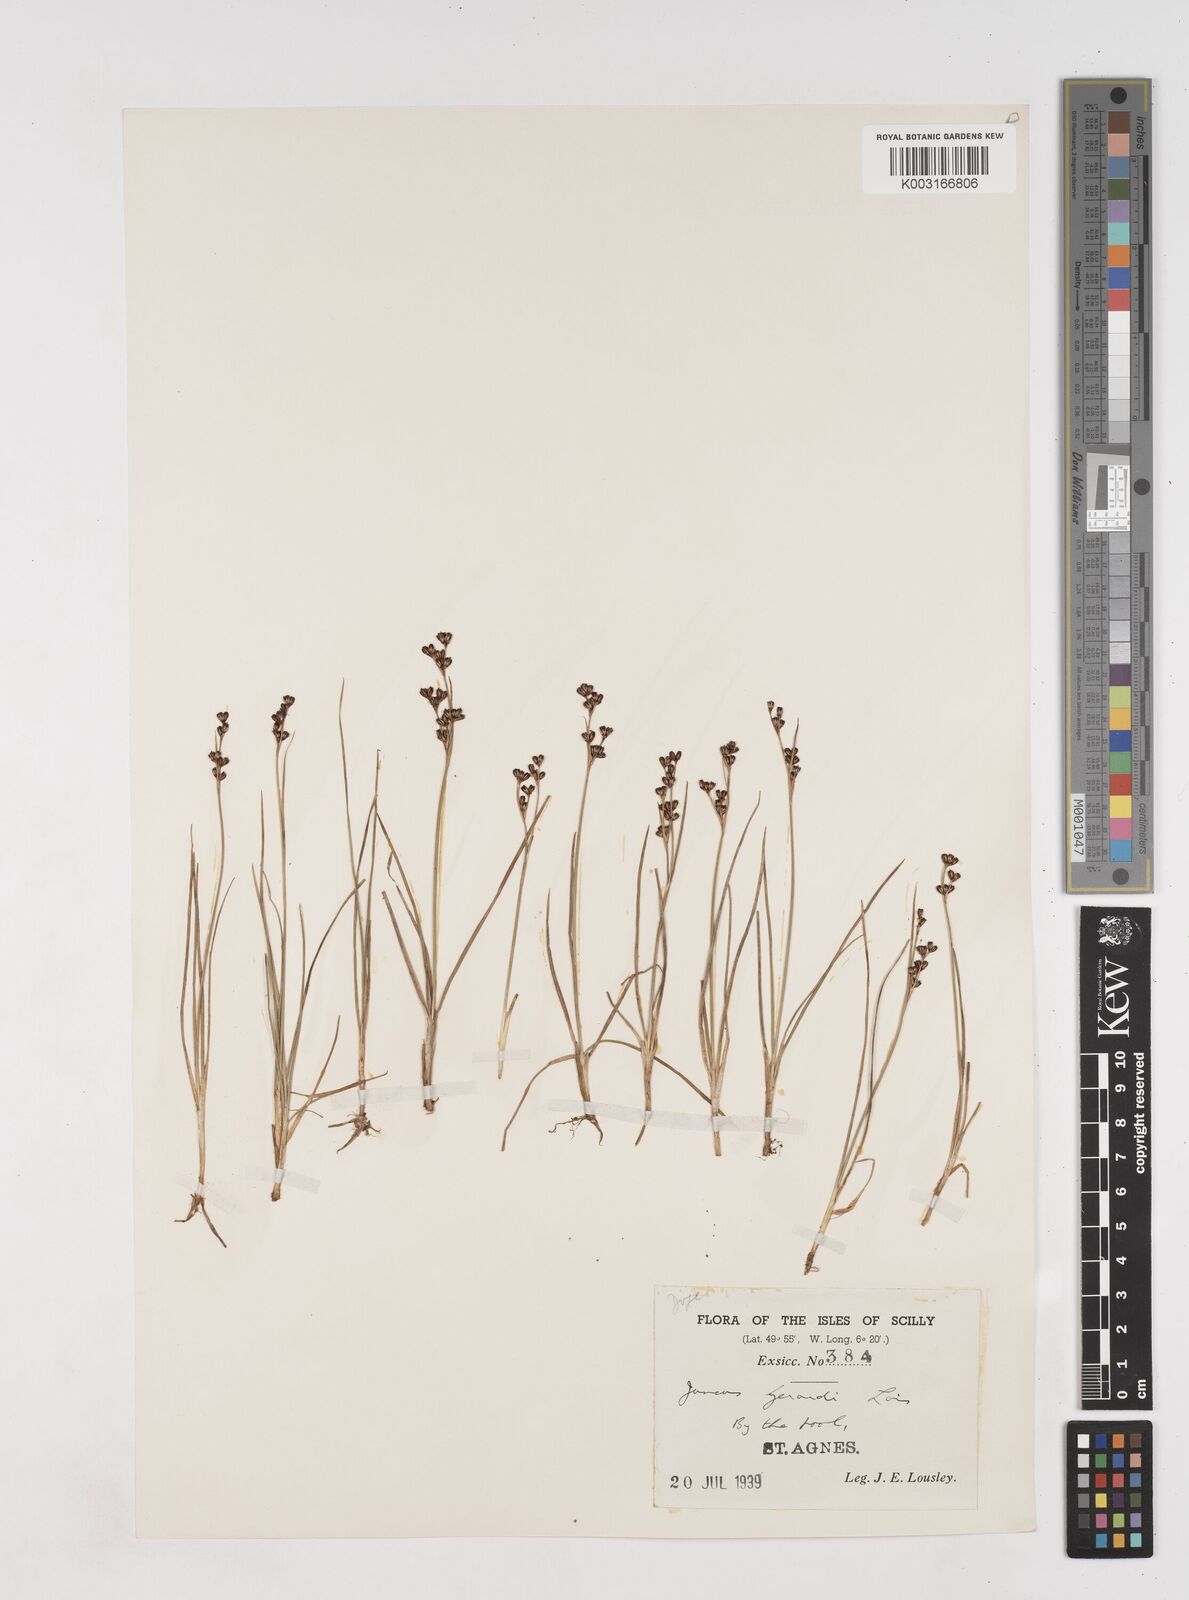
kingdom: Plantae
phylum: Tracheophyta
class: Liliopsida
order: Poales
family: Juncaceae
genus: Juncus
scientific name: Juncus gerardi
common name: Saltmarsh rush
